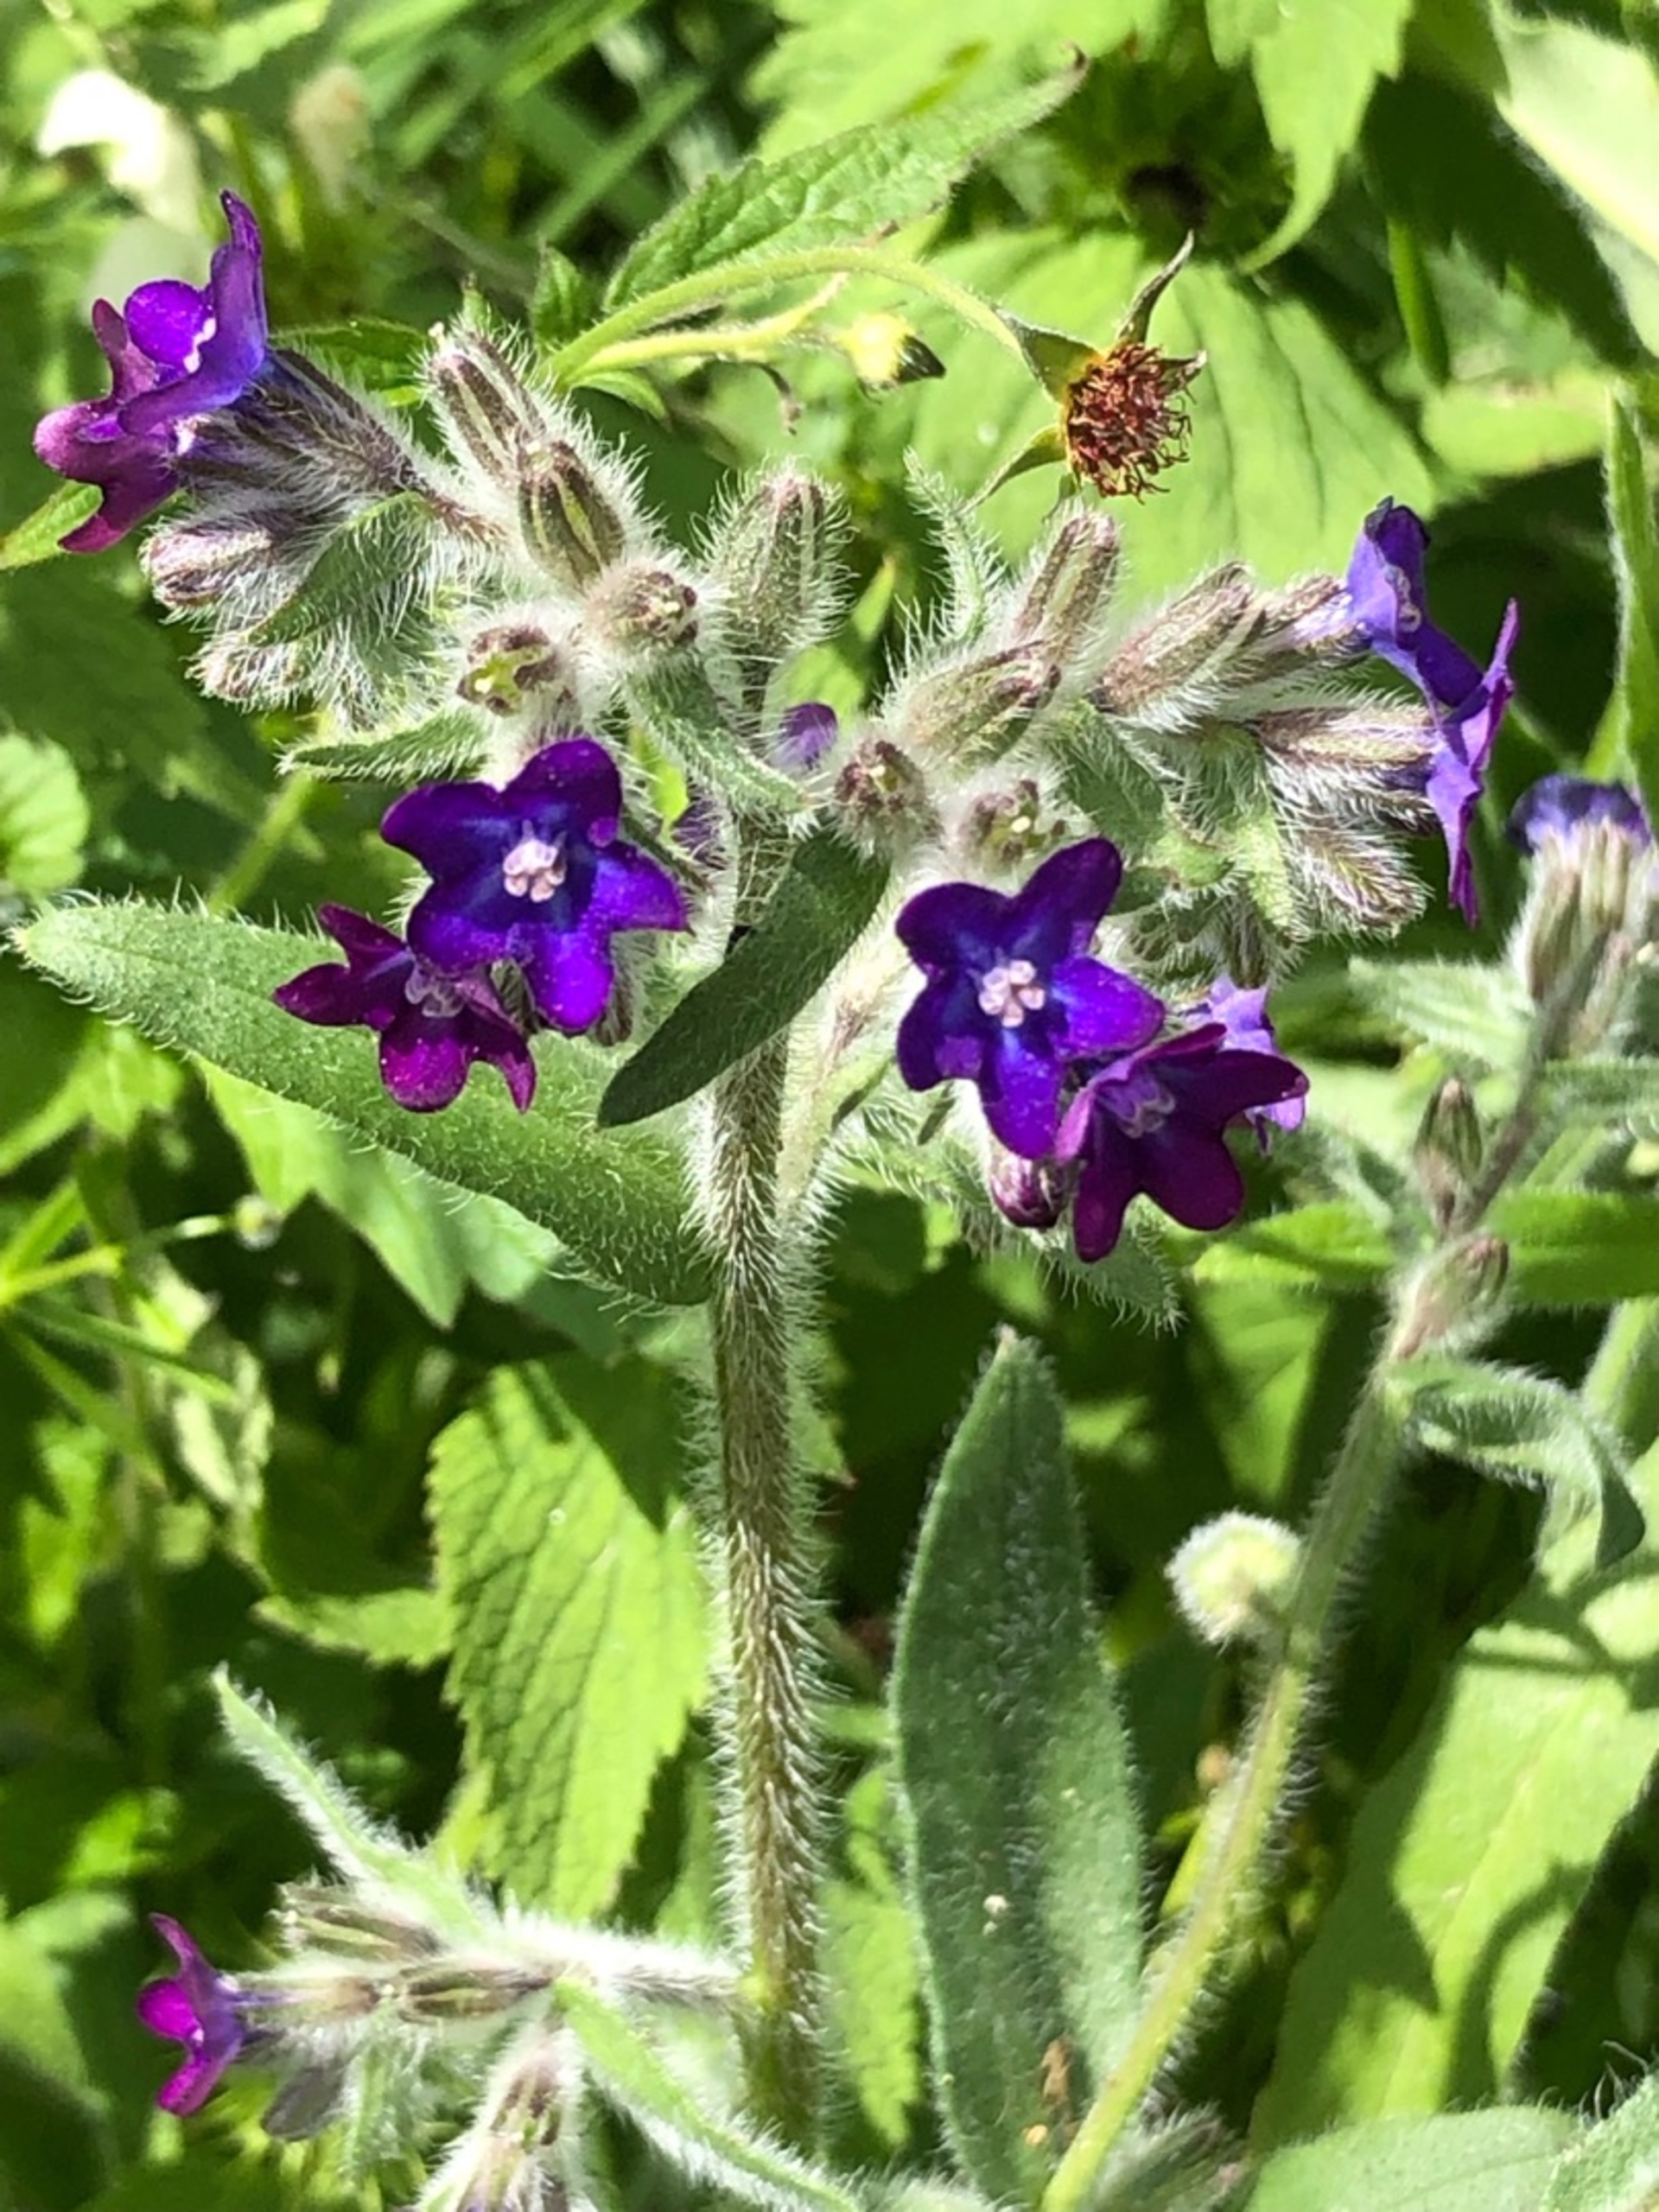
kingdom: Plantae
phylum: Tracheophyta
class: Magnoliopsida
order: Boraginales
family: Boraginaceae
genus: Anchusa
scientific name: Anchusa officinalis
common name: Læge-oksetunge
